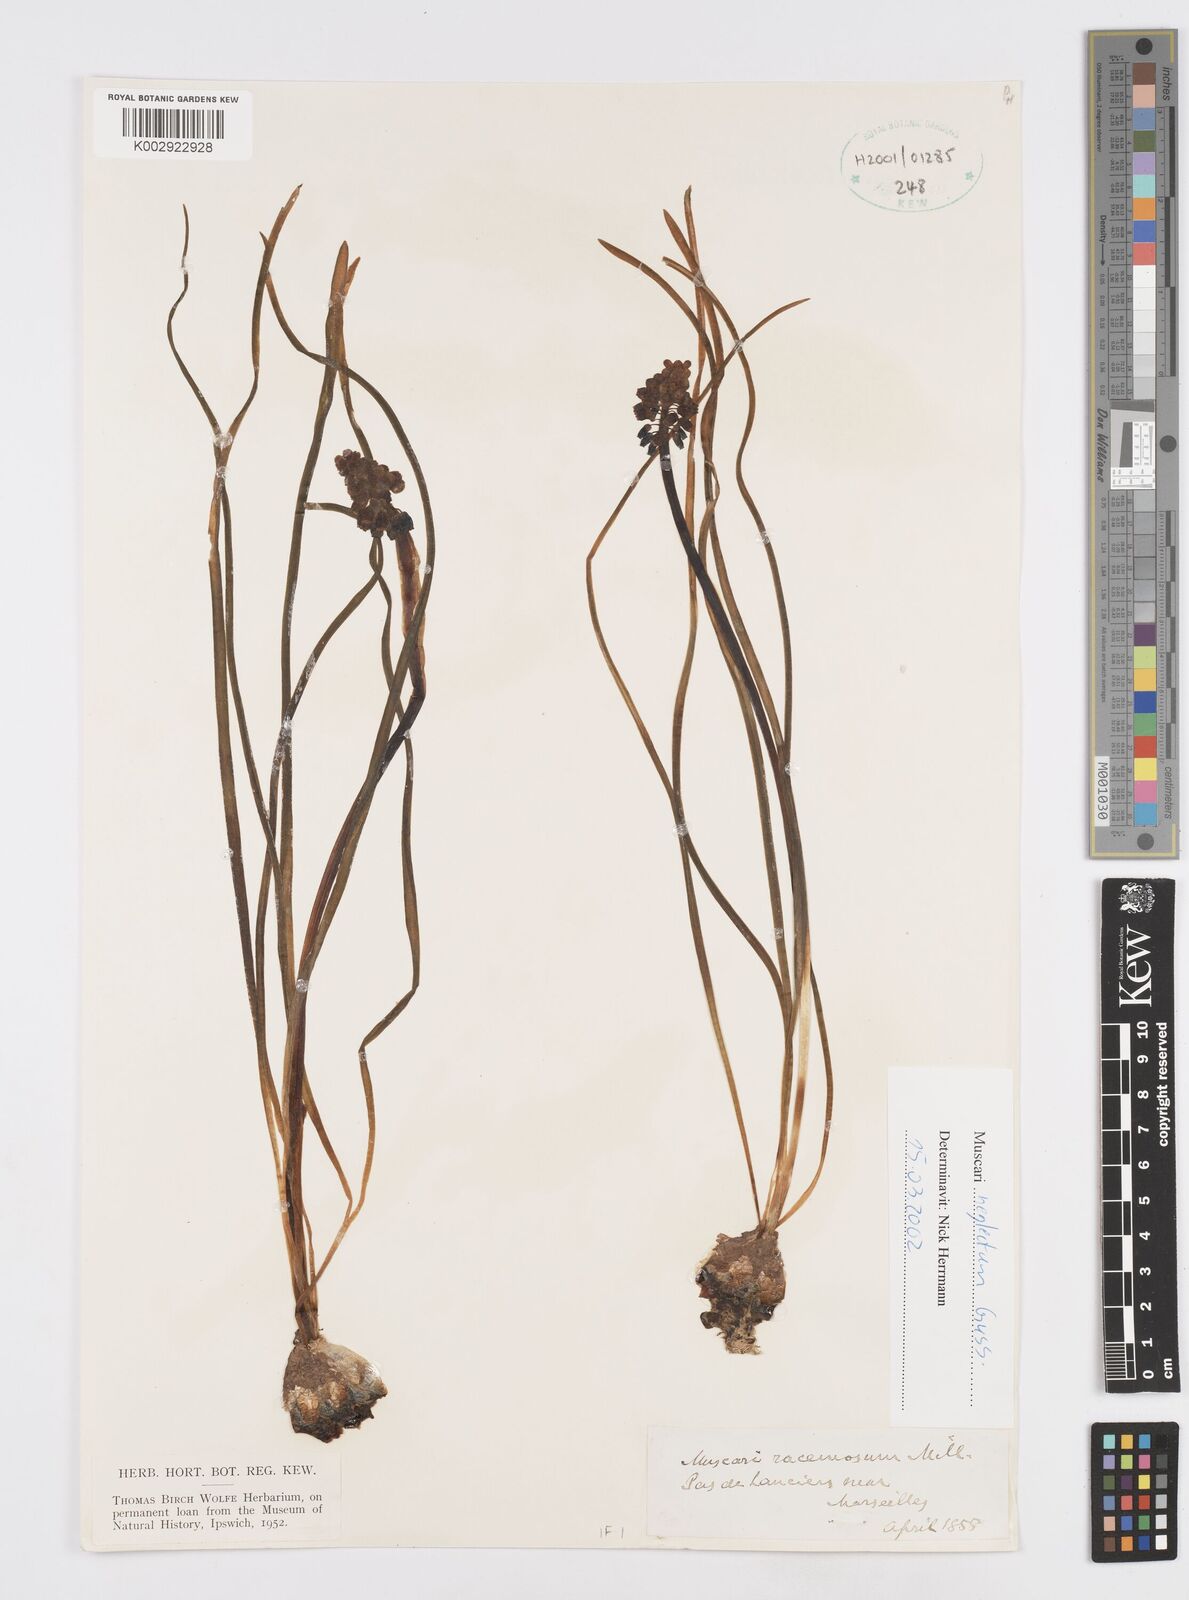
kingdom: Plantae
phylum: Tracheophyta
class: Liliopsida
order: Asparagales
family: Asparagaceae
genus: Muscarimia
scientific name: Muscarimia muscari
